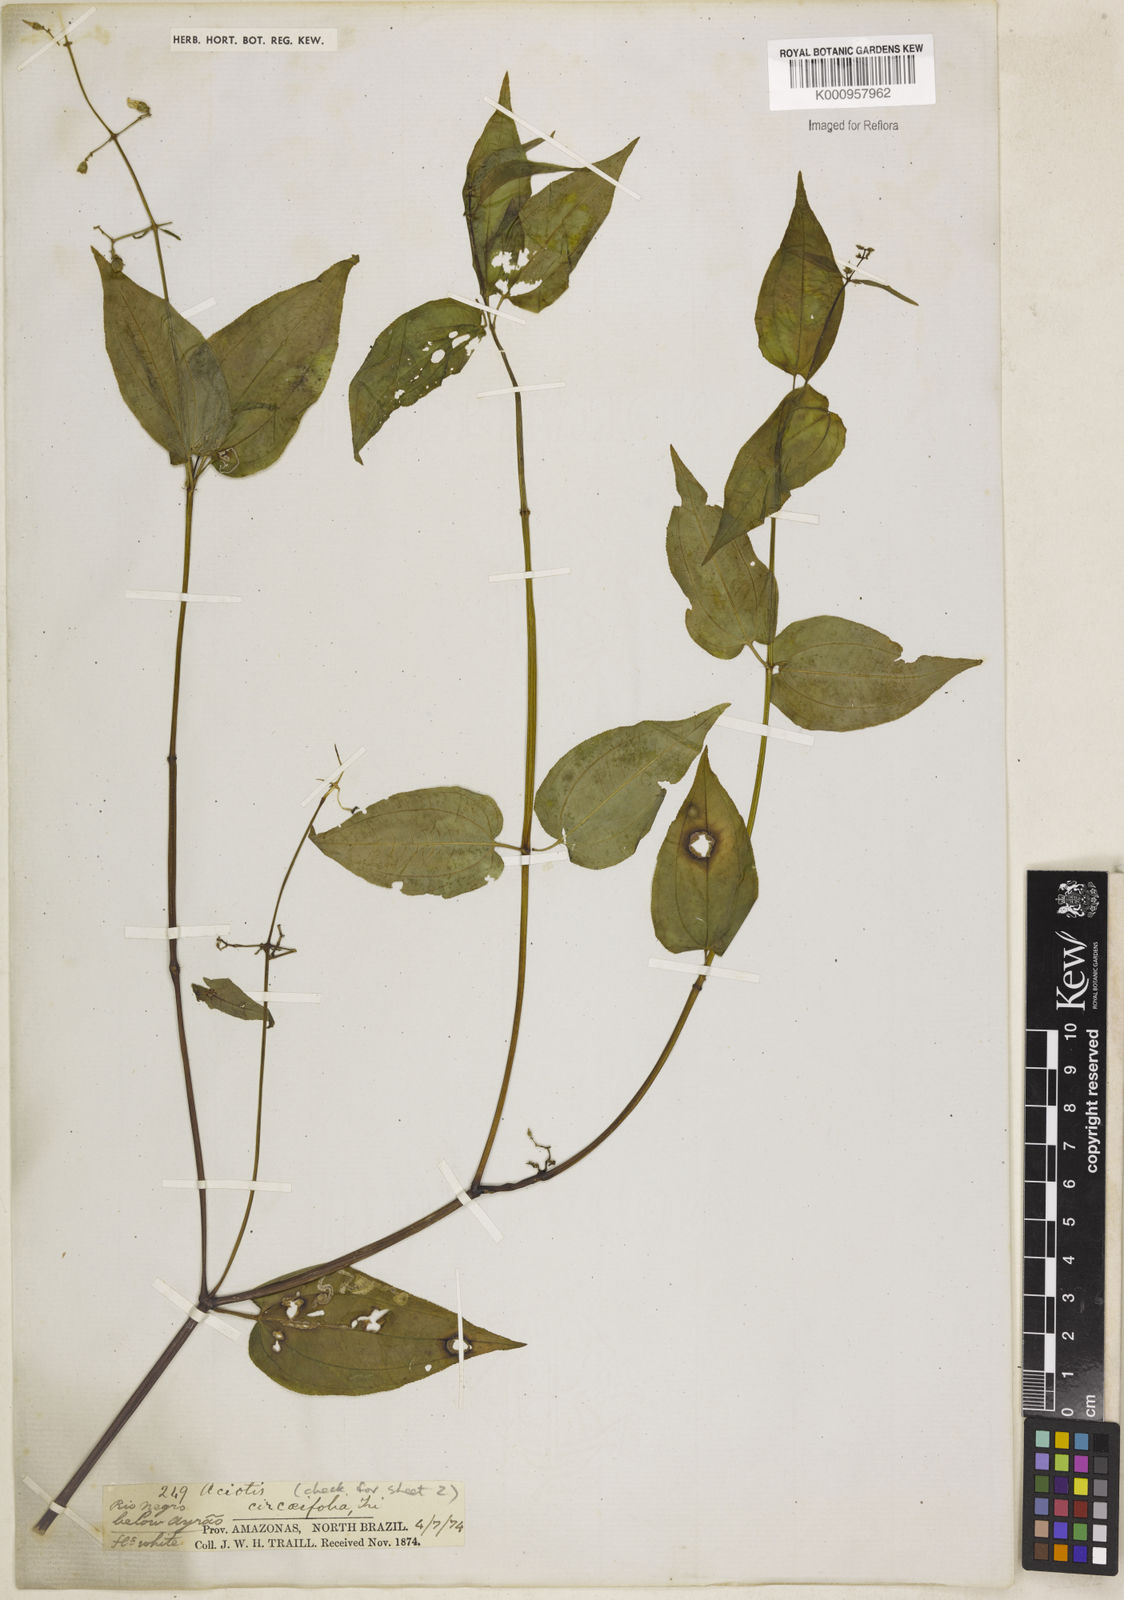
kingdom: Plantae
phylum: Tracheophyta
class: Magnoliopsida
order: Myrtales
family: Melastomataceae
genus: Aciotis
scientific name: Aciotis circaeifolia
